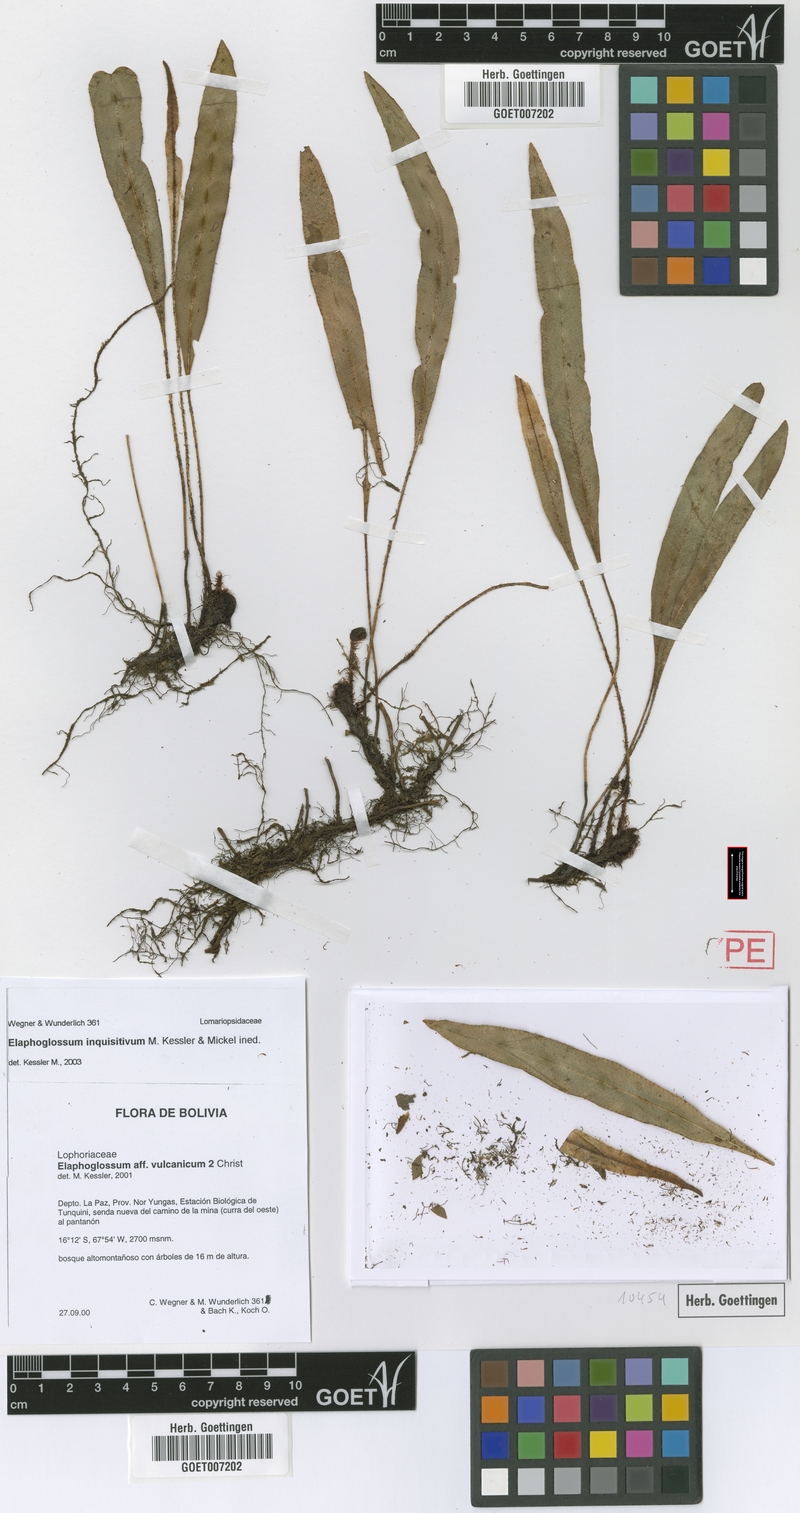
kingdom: Plantae
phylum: Tracheophyta
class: Polypodiopsida
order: Polypodiales
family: Dryopteridaceae
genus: Elaphoglossum
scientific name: Elaphoglossum inquisitivum
